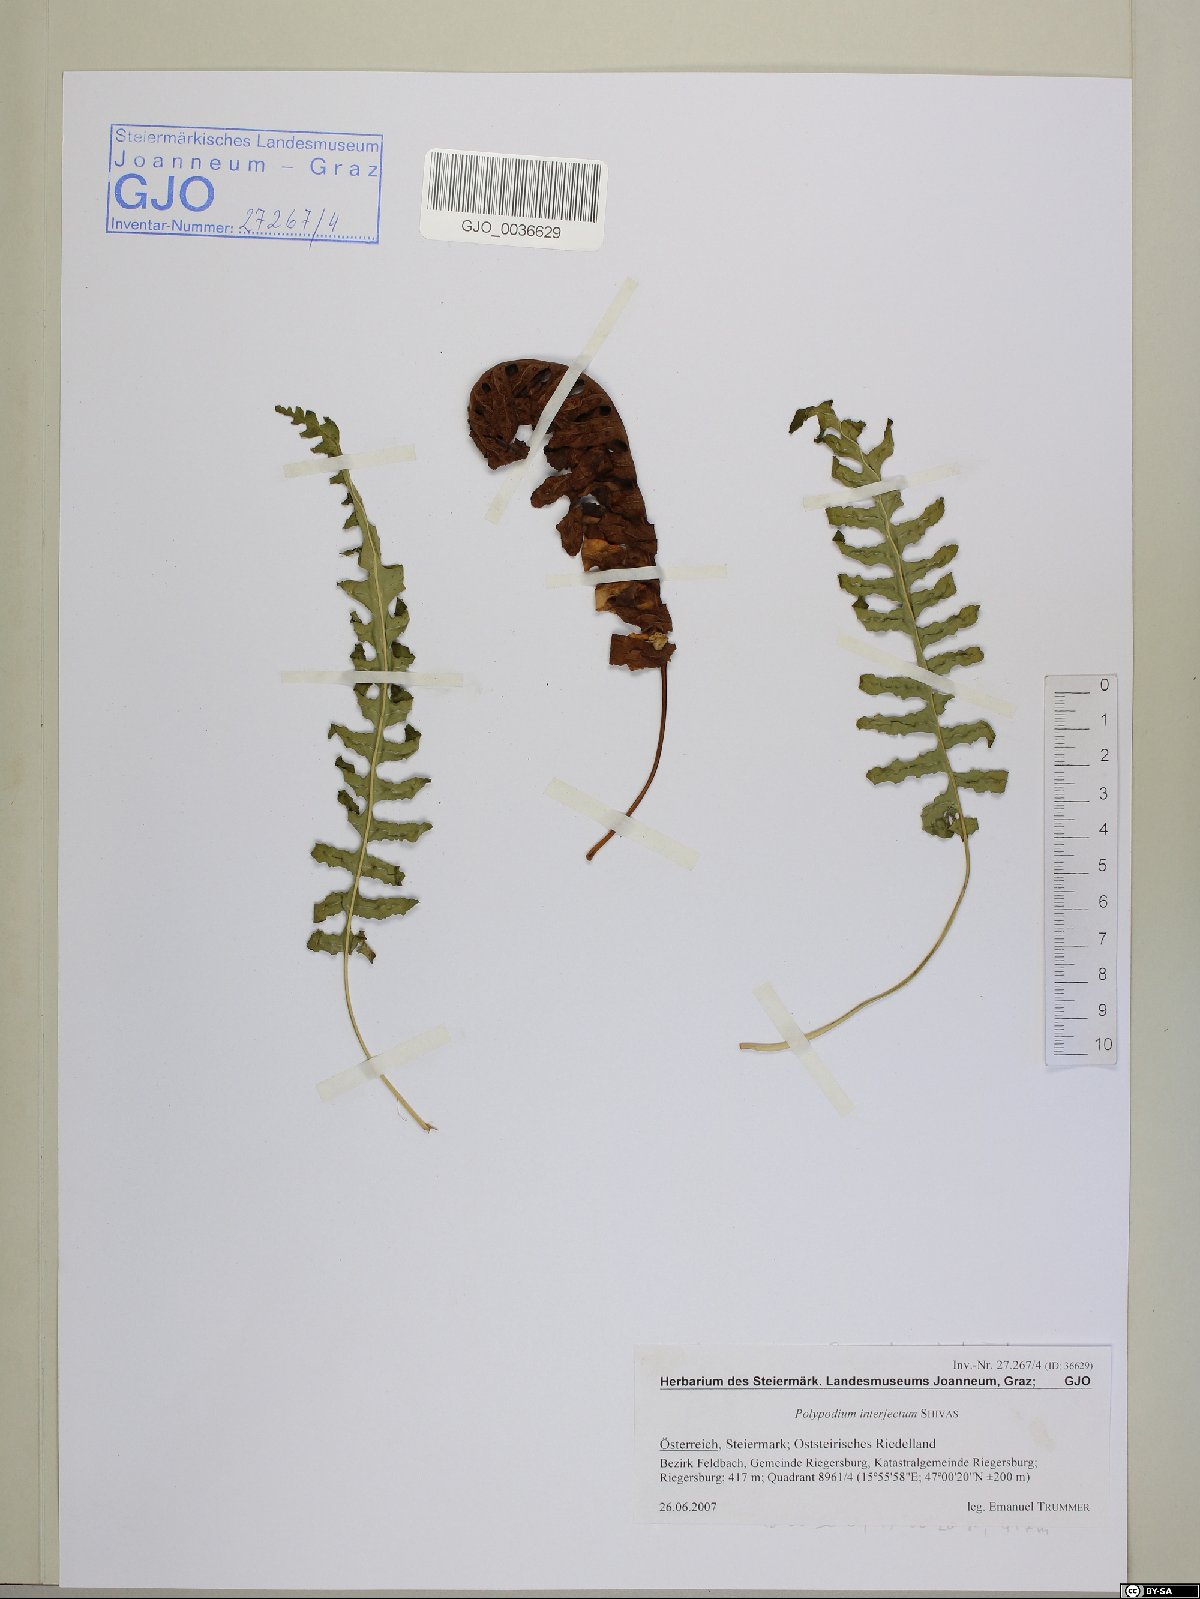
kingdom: Plantae
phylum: Tracheophyta
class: Polypodiopsida
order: Polypodiales
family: Polypodiaceae
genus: Polypodium
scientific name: Polypodium interjectum
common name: Intermediate polypody
